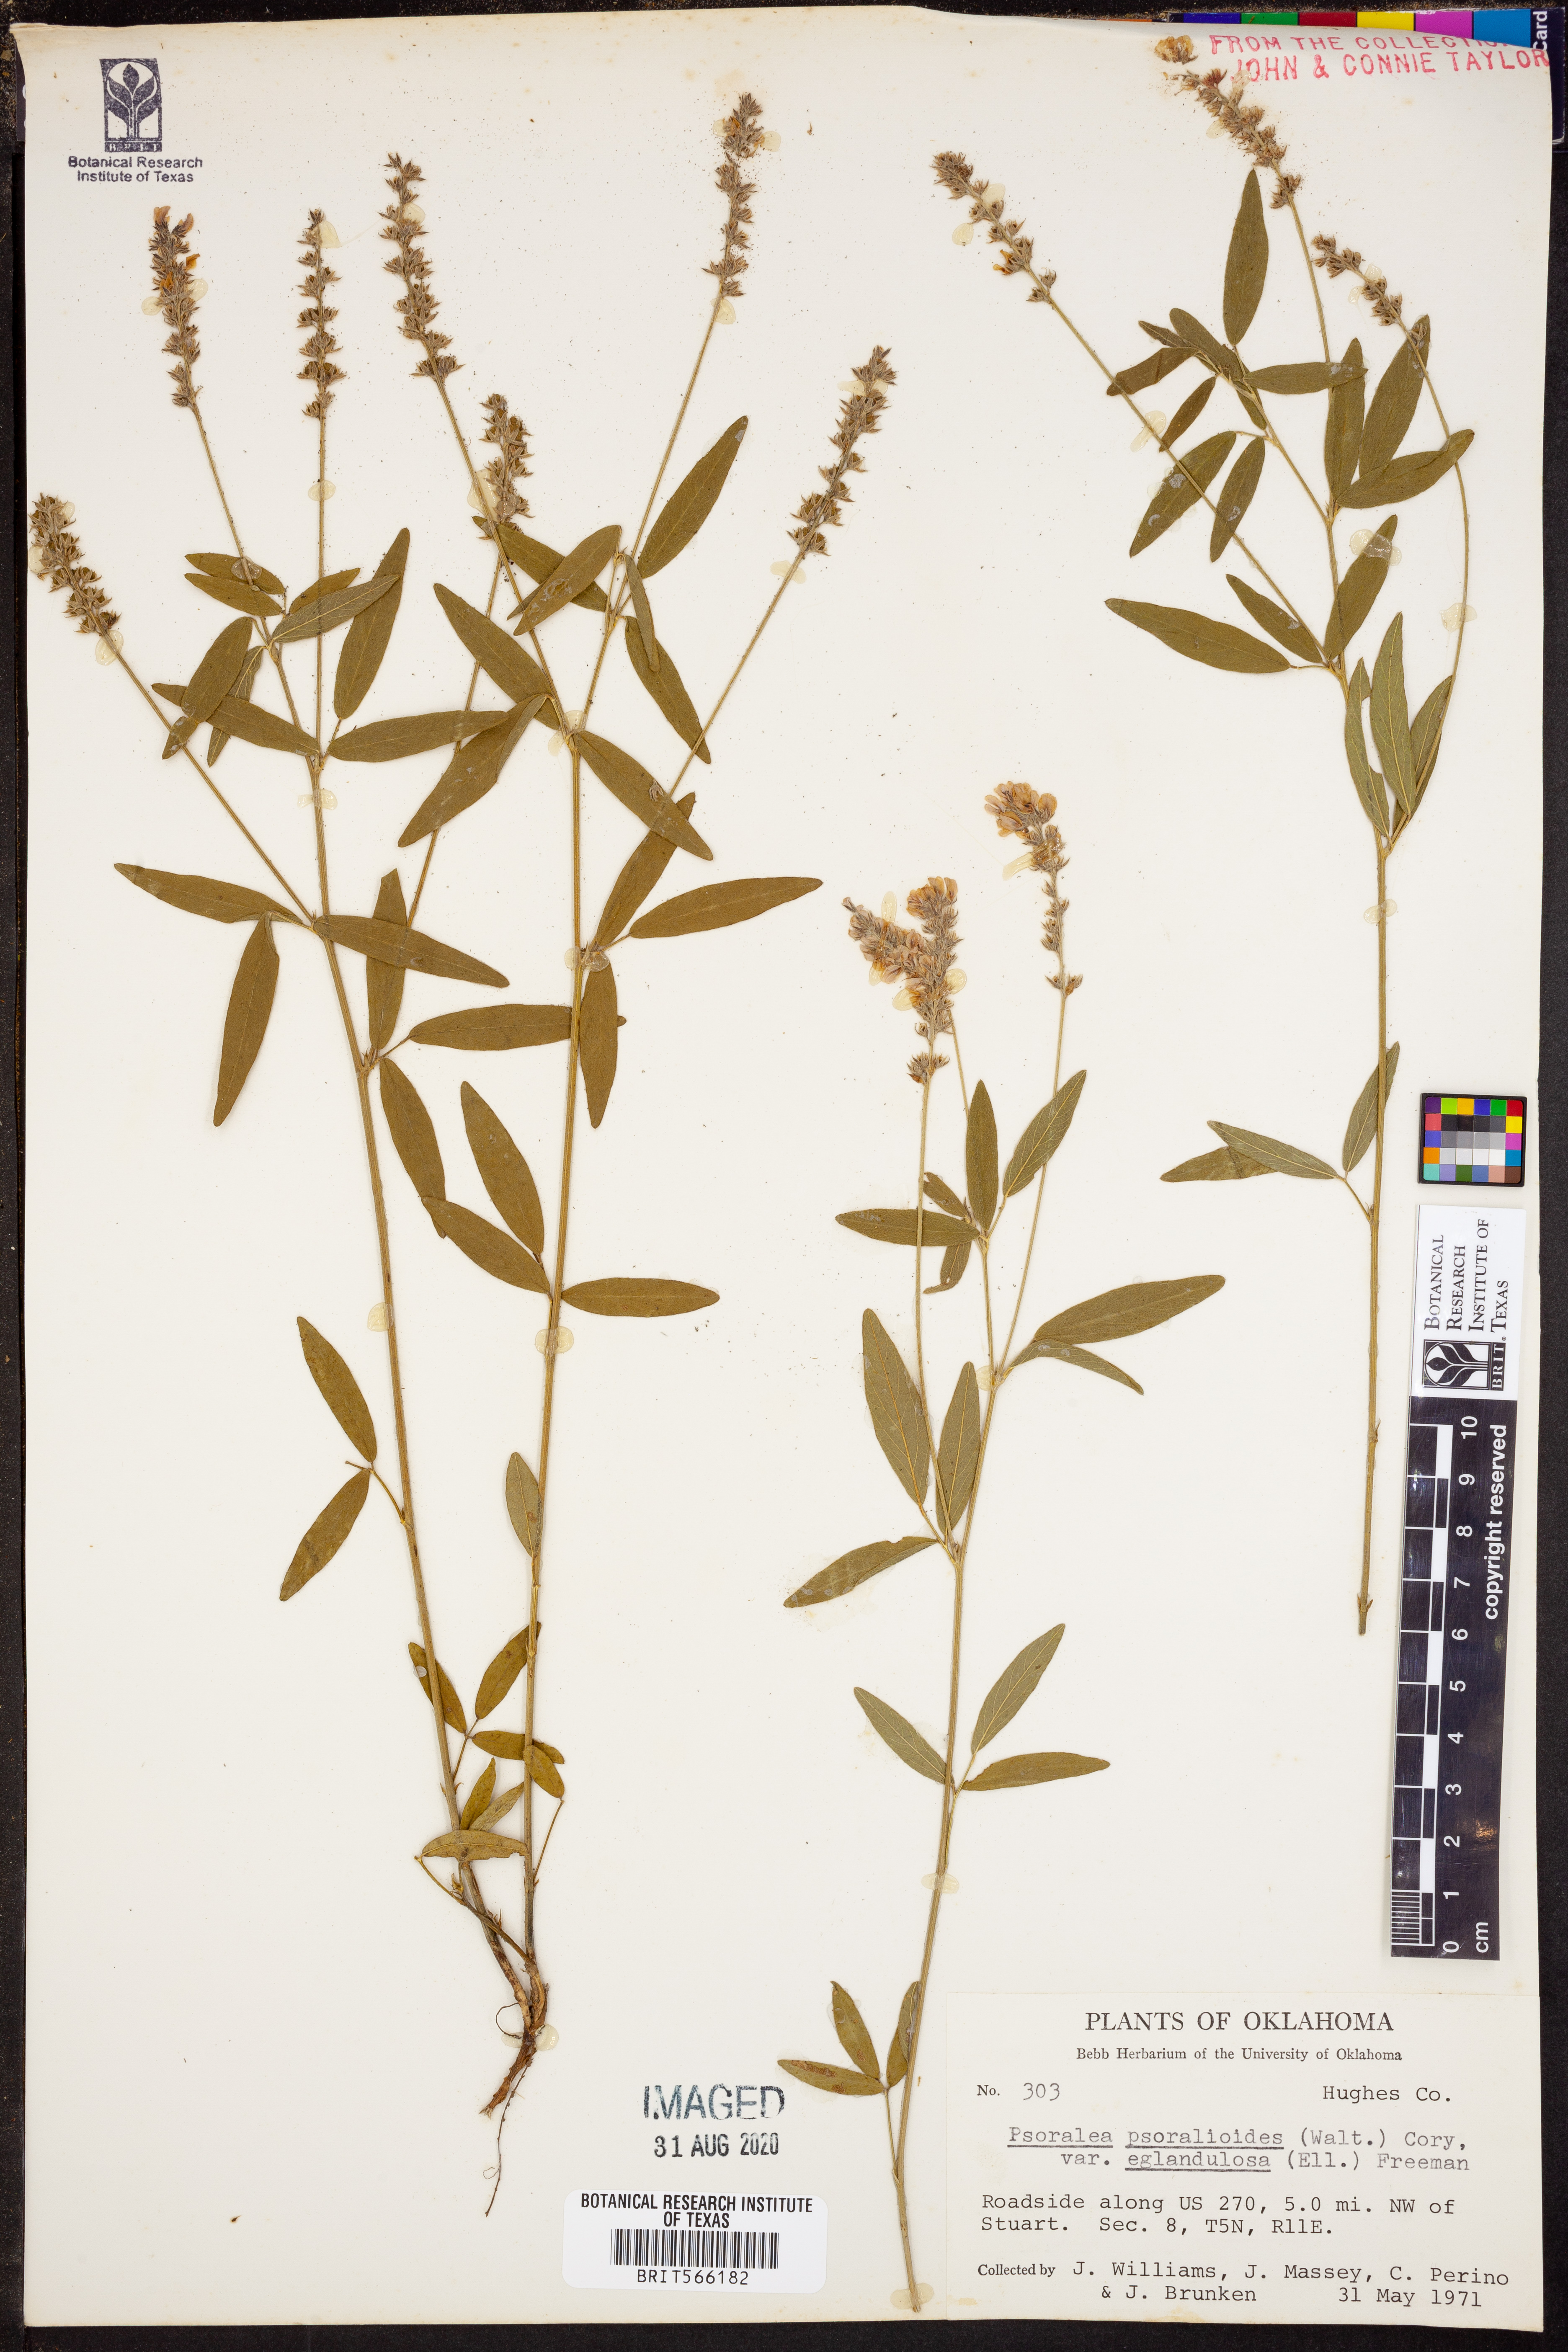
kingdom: Plantae
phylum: Tracheophyta
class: Magnoliopsida
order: Fabales
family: Fabaceae
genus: Orbexilum
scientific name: Orbexilum pedunculatum
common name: Sampson's snakeroot
